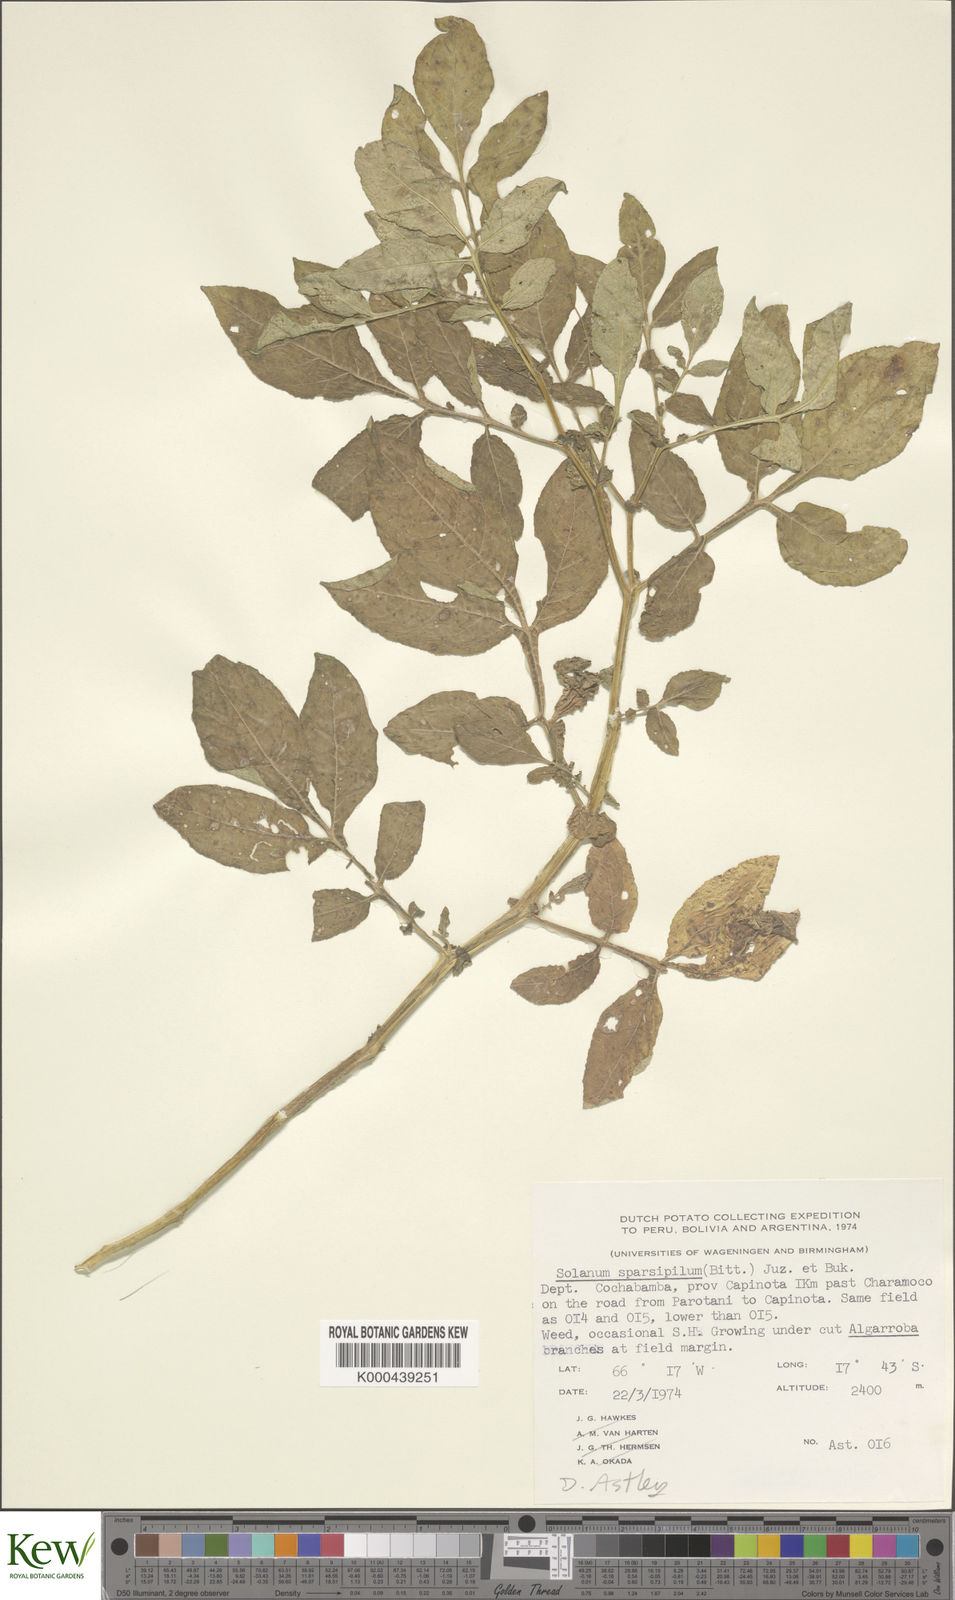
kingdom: Plantae
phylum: Tracheophyta
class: Magnoliopsida
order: Solanales
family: Solanaceae
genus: Solanum
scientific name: Solanum brevicaule
